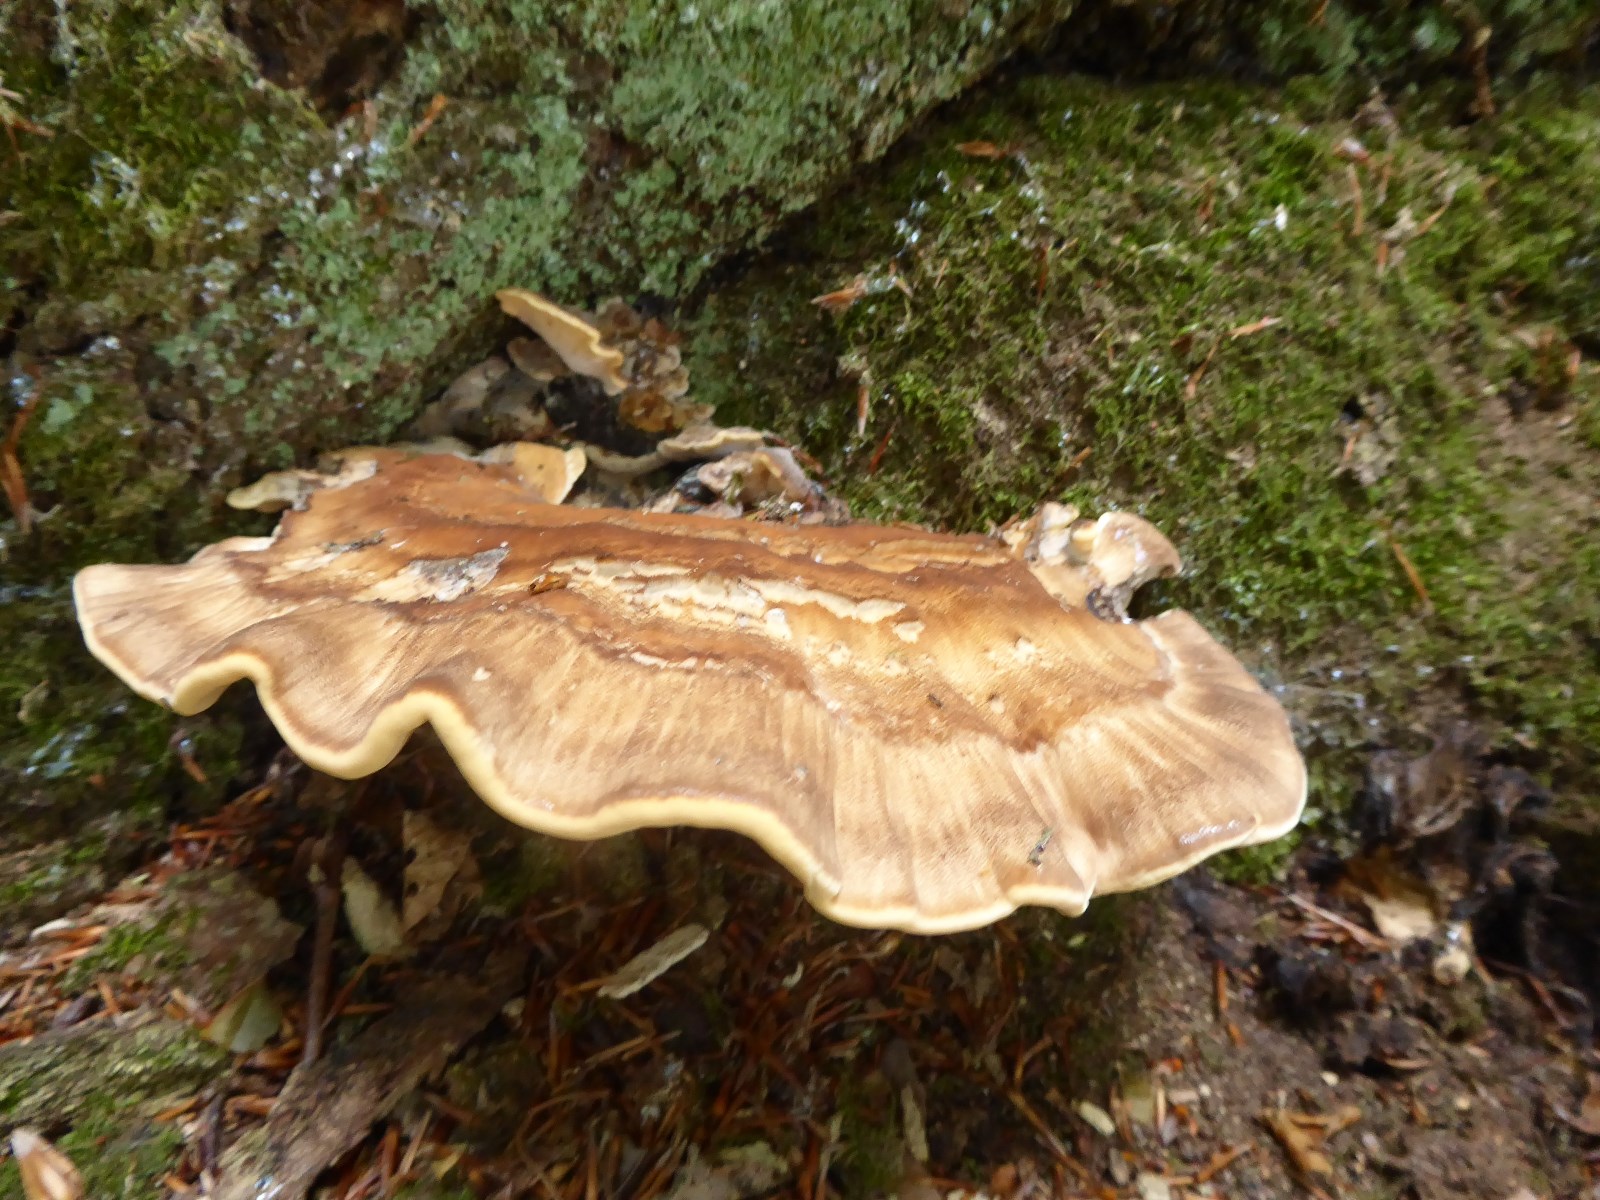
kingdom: Fungi
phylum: Basidiomycota
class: Agaricomycetes
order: Polyporales
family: Meripilaceae
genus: Meripilus
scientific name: Meripilus giganteus
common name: kæmpeporesvamp
